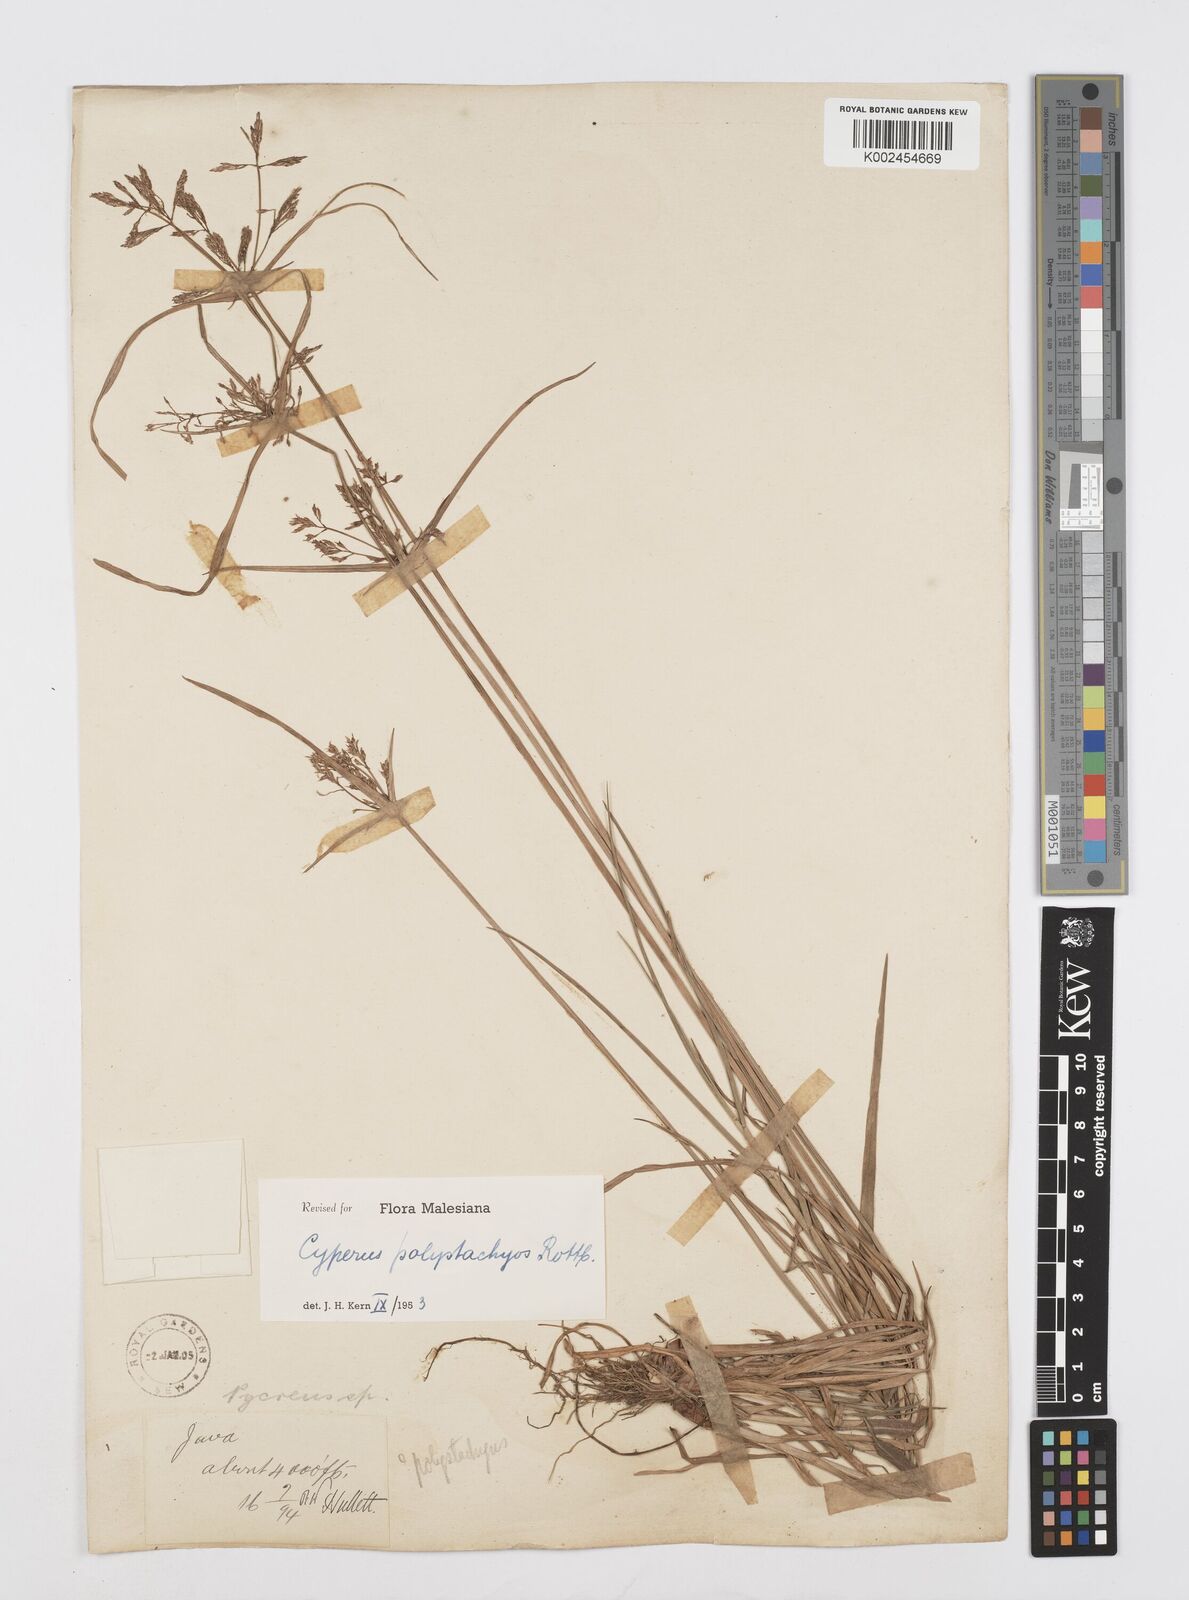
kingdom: Plantae
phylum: Tracheophyta
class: Liliopsida
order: Poales
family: Cyperaceae
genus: Cyperus
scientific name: Cyperus polystachyos
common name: Bunchy flat sedge
